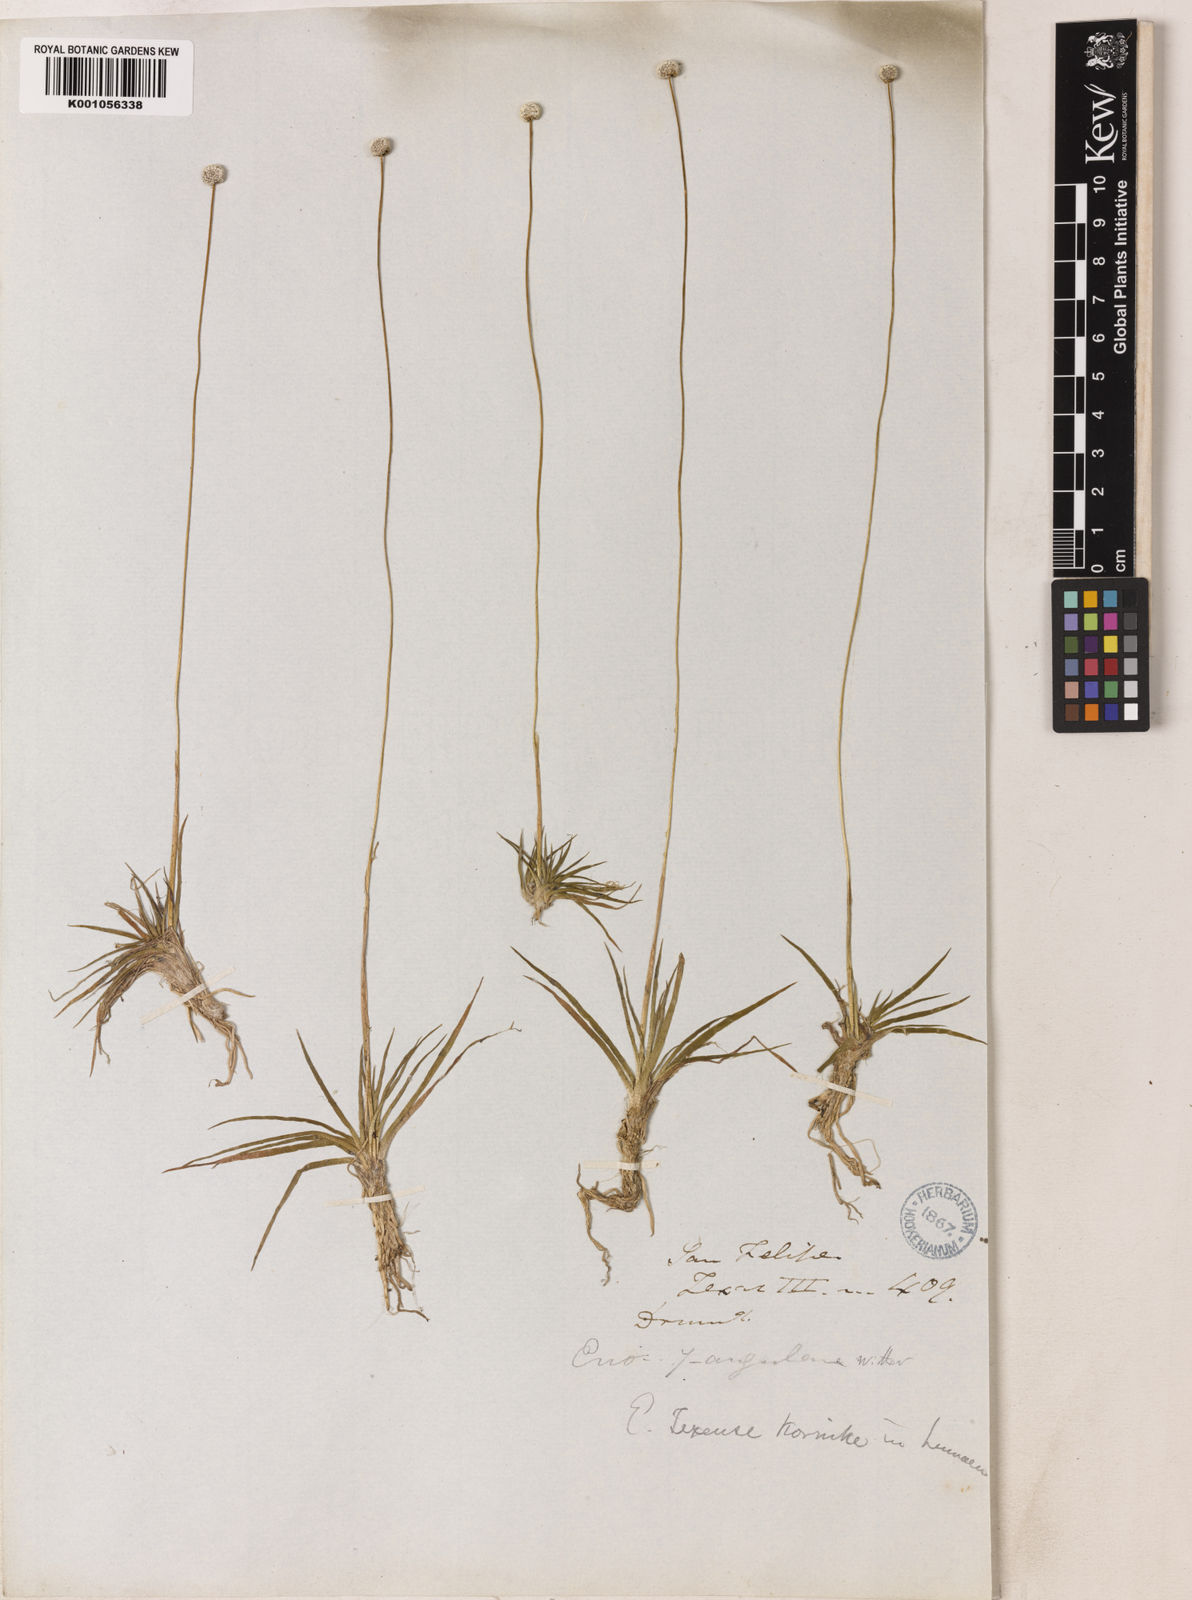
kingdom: Plantae
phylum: Tracheophyta
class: Liliopsida
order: Poales
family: Eriocaulaceae
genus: Eriocaulon
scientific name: Eriocaulon
